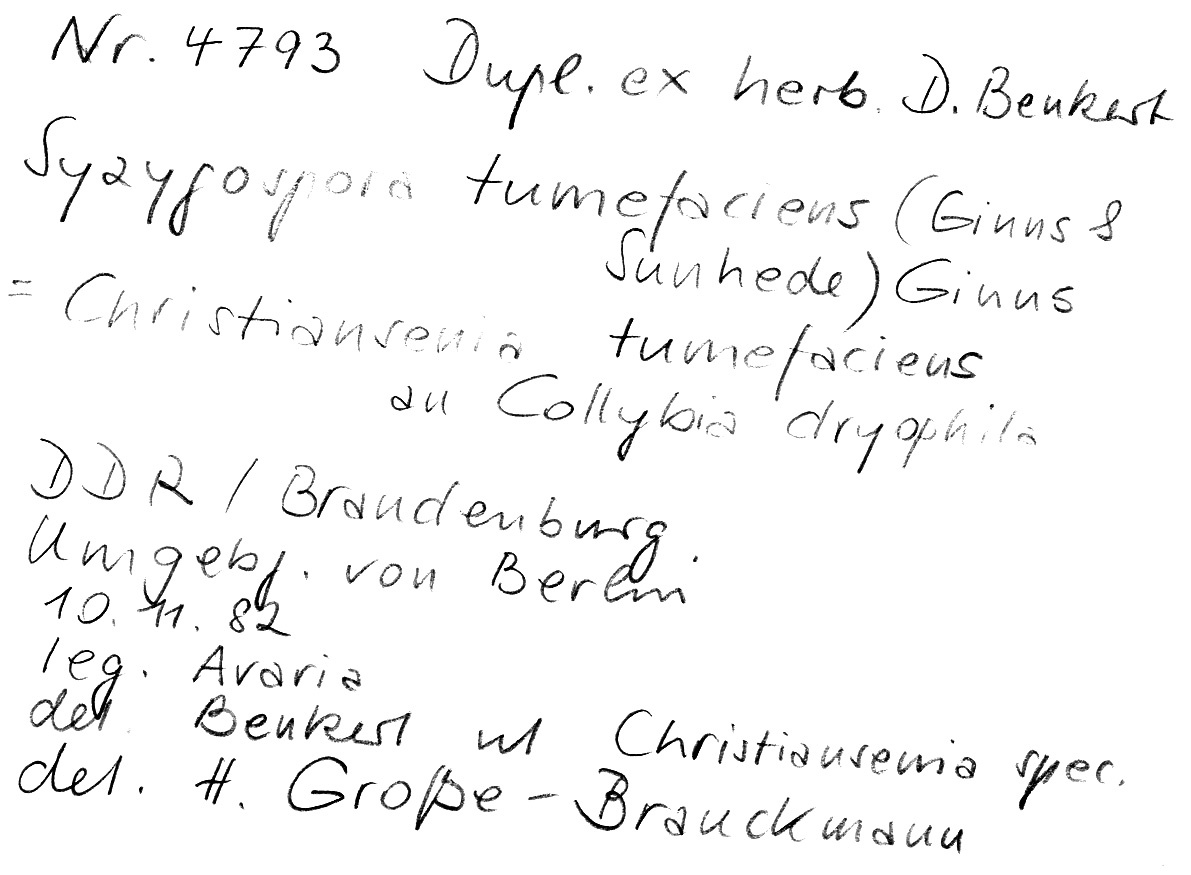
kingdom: Fungi
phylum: Basidiomycota
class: Tremellomycetes
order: Filobasidiales
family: Filobasidiaceae
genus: Syzygospora
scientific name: Syzygospora tumefaciens
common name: Toughshank jellygall
